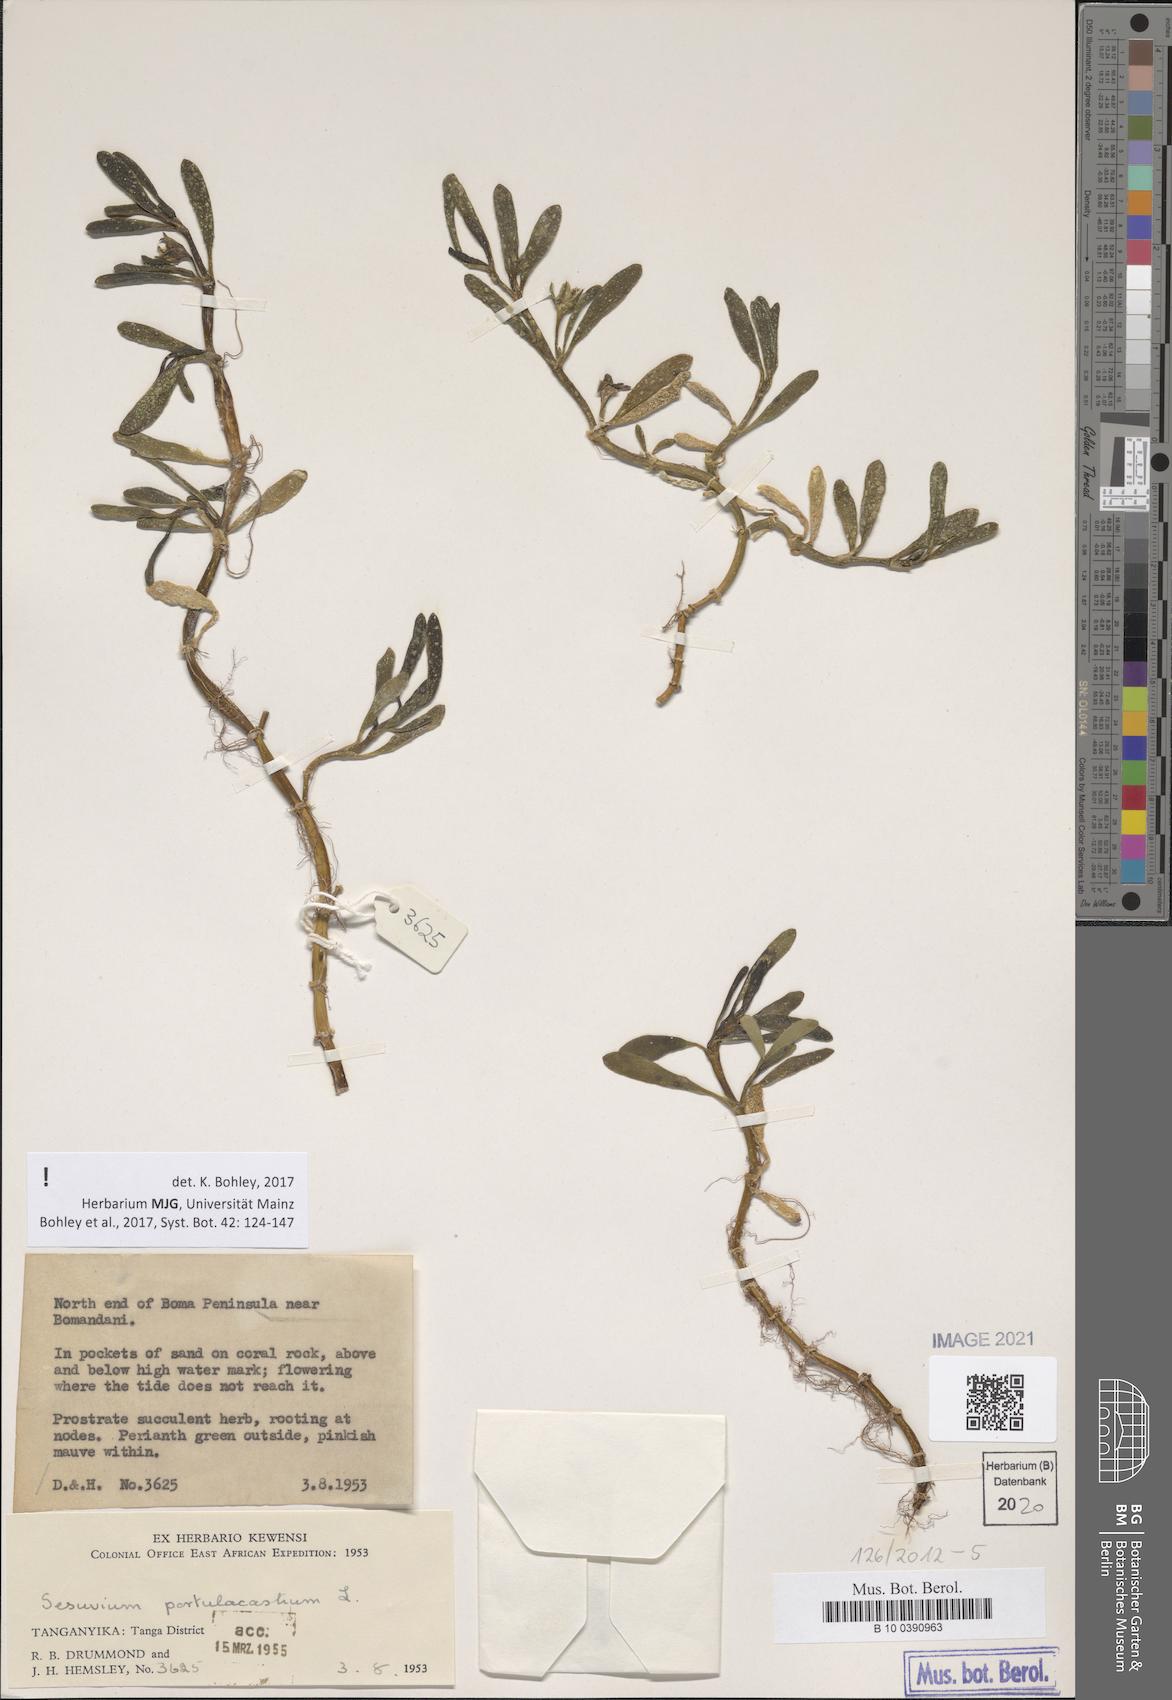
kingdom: Plantae
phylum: Tracheophyta
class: Magnoliopsida
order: Caryophyllales
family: Aizoaceae
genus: Sesuvium
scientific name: Sesuvium portulacastrum
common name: Sea-purslane
